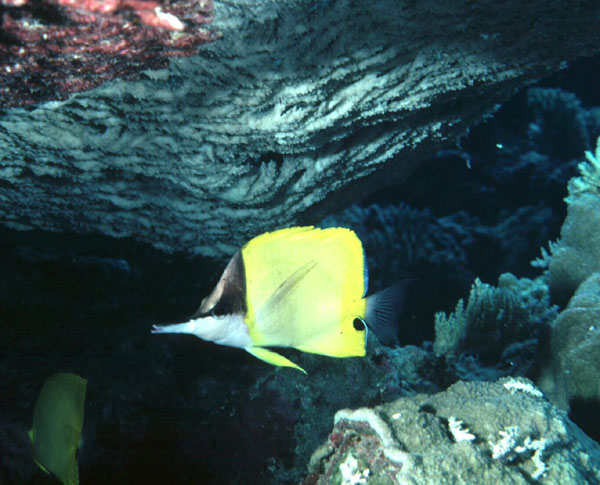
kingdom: Animalia
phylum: Chordata
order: Perciformes
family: Chaetodontidae
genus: Forcipiger
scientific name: Forcipiger flavissimus
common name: Forcepsfish
